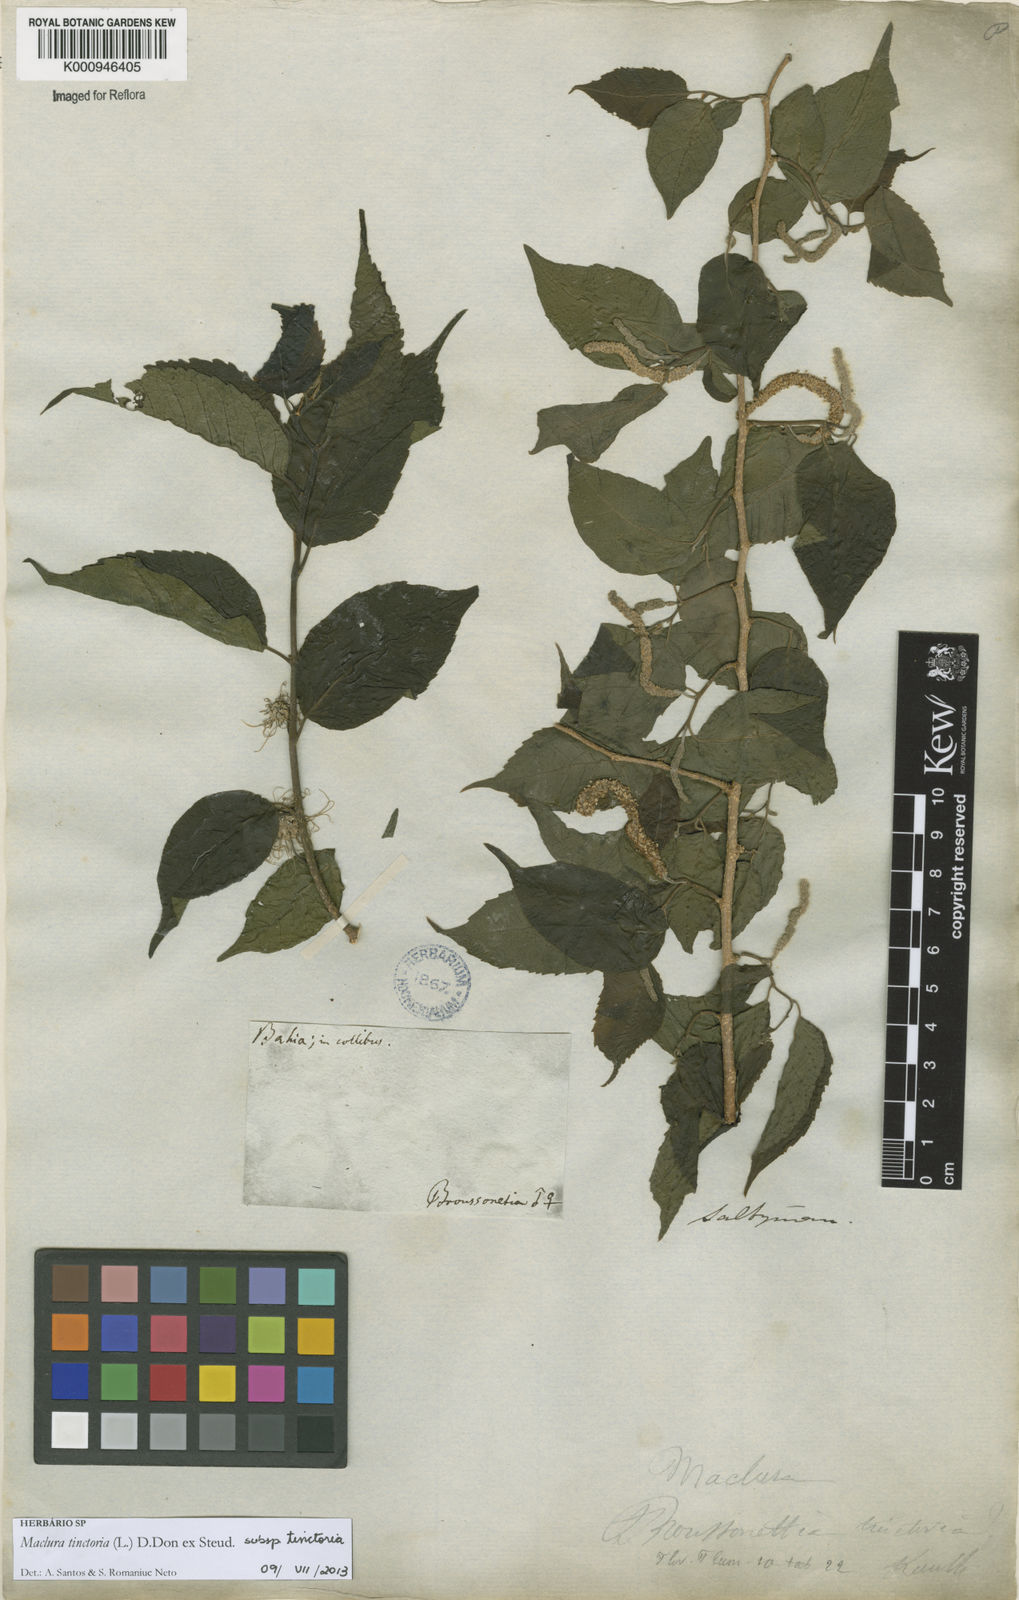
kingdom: Plantae
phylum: Tracheophyta
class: Magnoliopsida
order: Rosales
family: Moraceae
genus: Maclura
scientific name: Maclura
